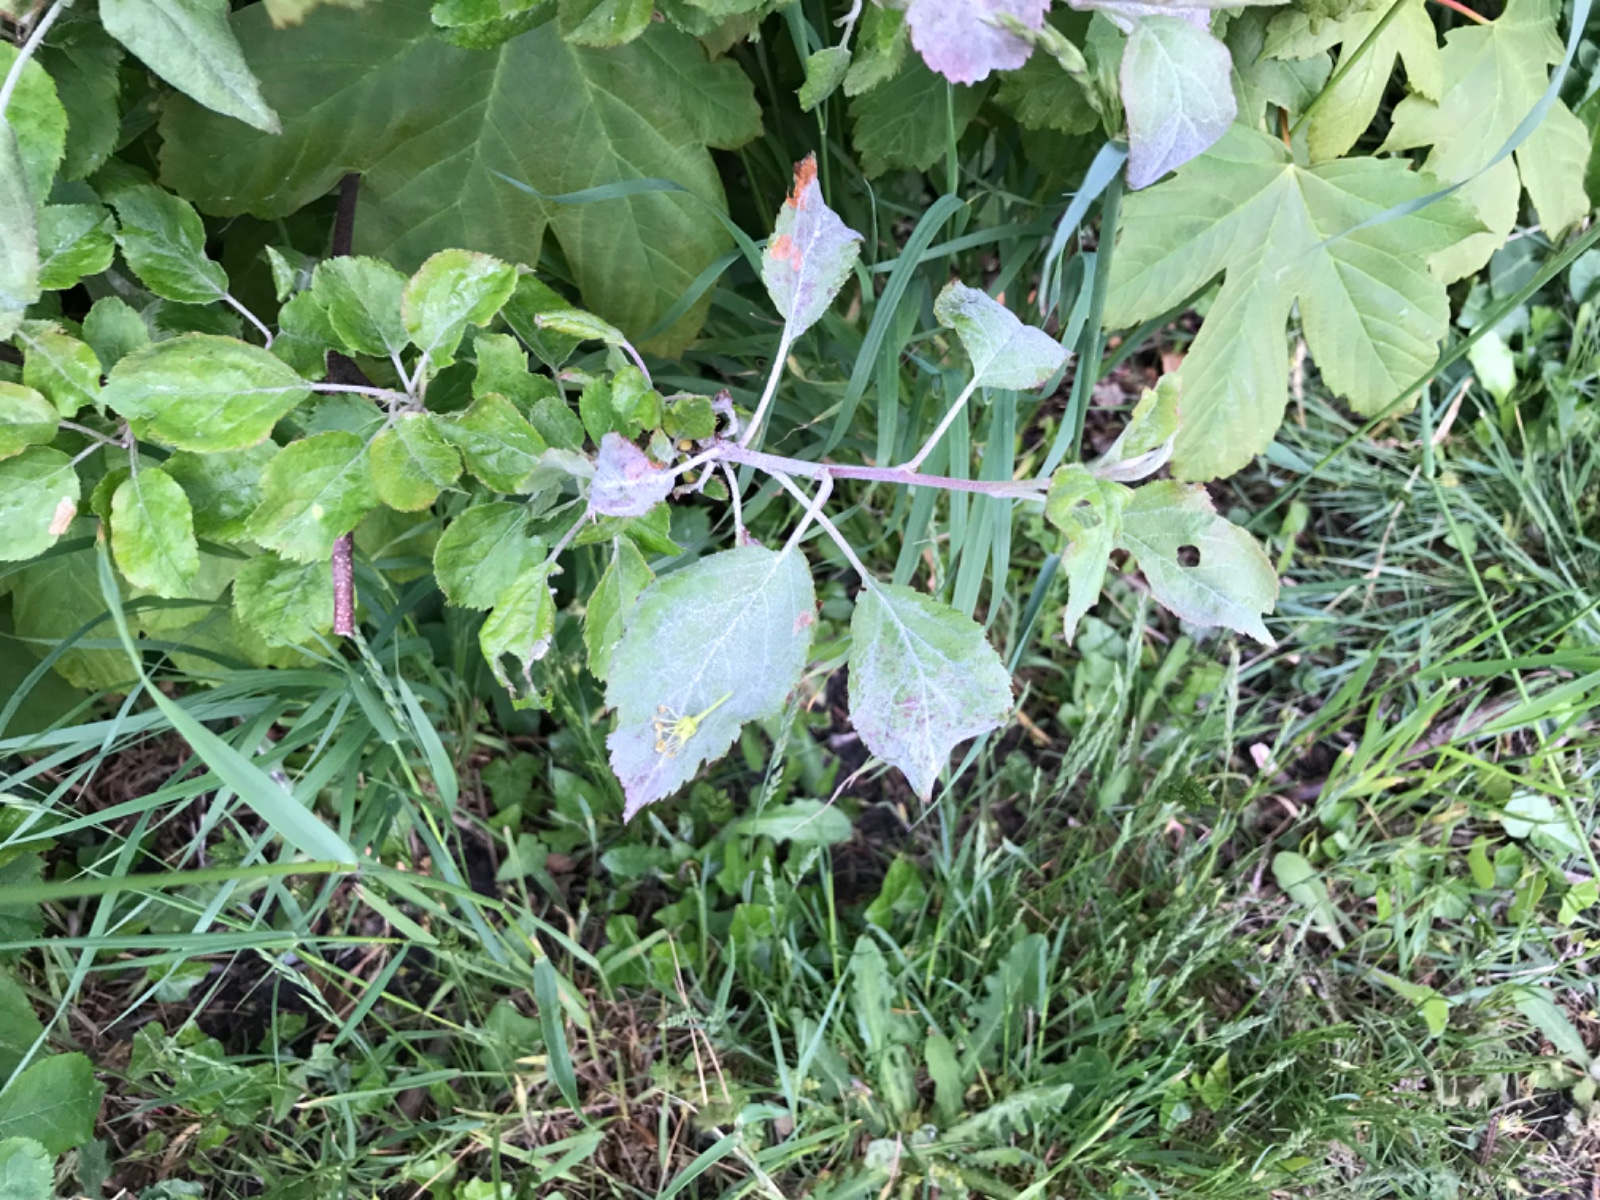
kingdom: Fungi
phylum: Ascomycota
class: Leotiomycetes
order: Helotiales
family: Erysiphaceae
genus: Podosphaera
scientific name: Podosphaera leucotricha
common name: æble-meldug
